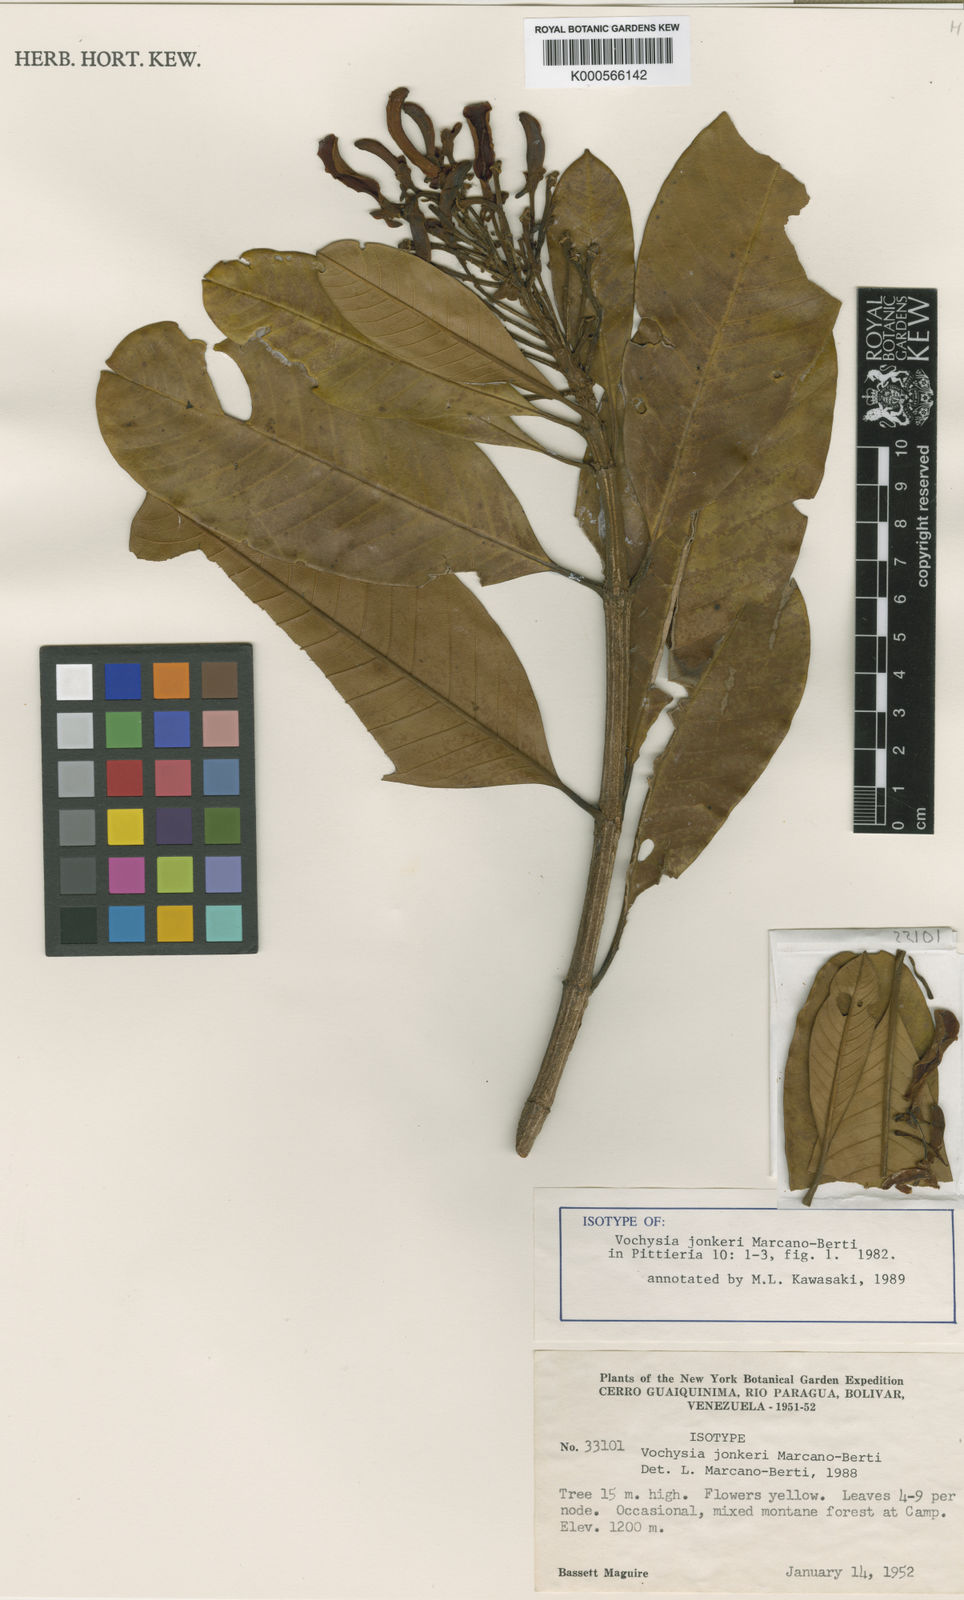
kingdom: Plantae
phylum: Tracheophyta
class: Magnoliopsida
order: Myrtales
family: Vochysiaceae
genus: Vochysia
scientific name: Vochysia jonkeri
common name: Jonker vochysia
